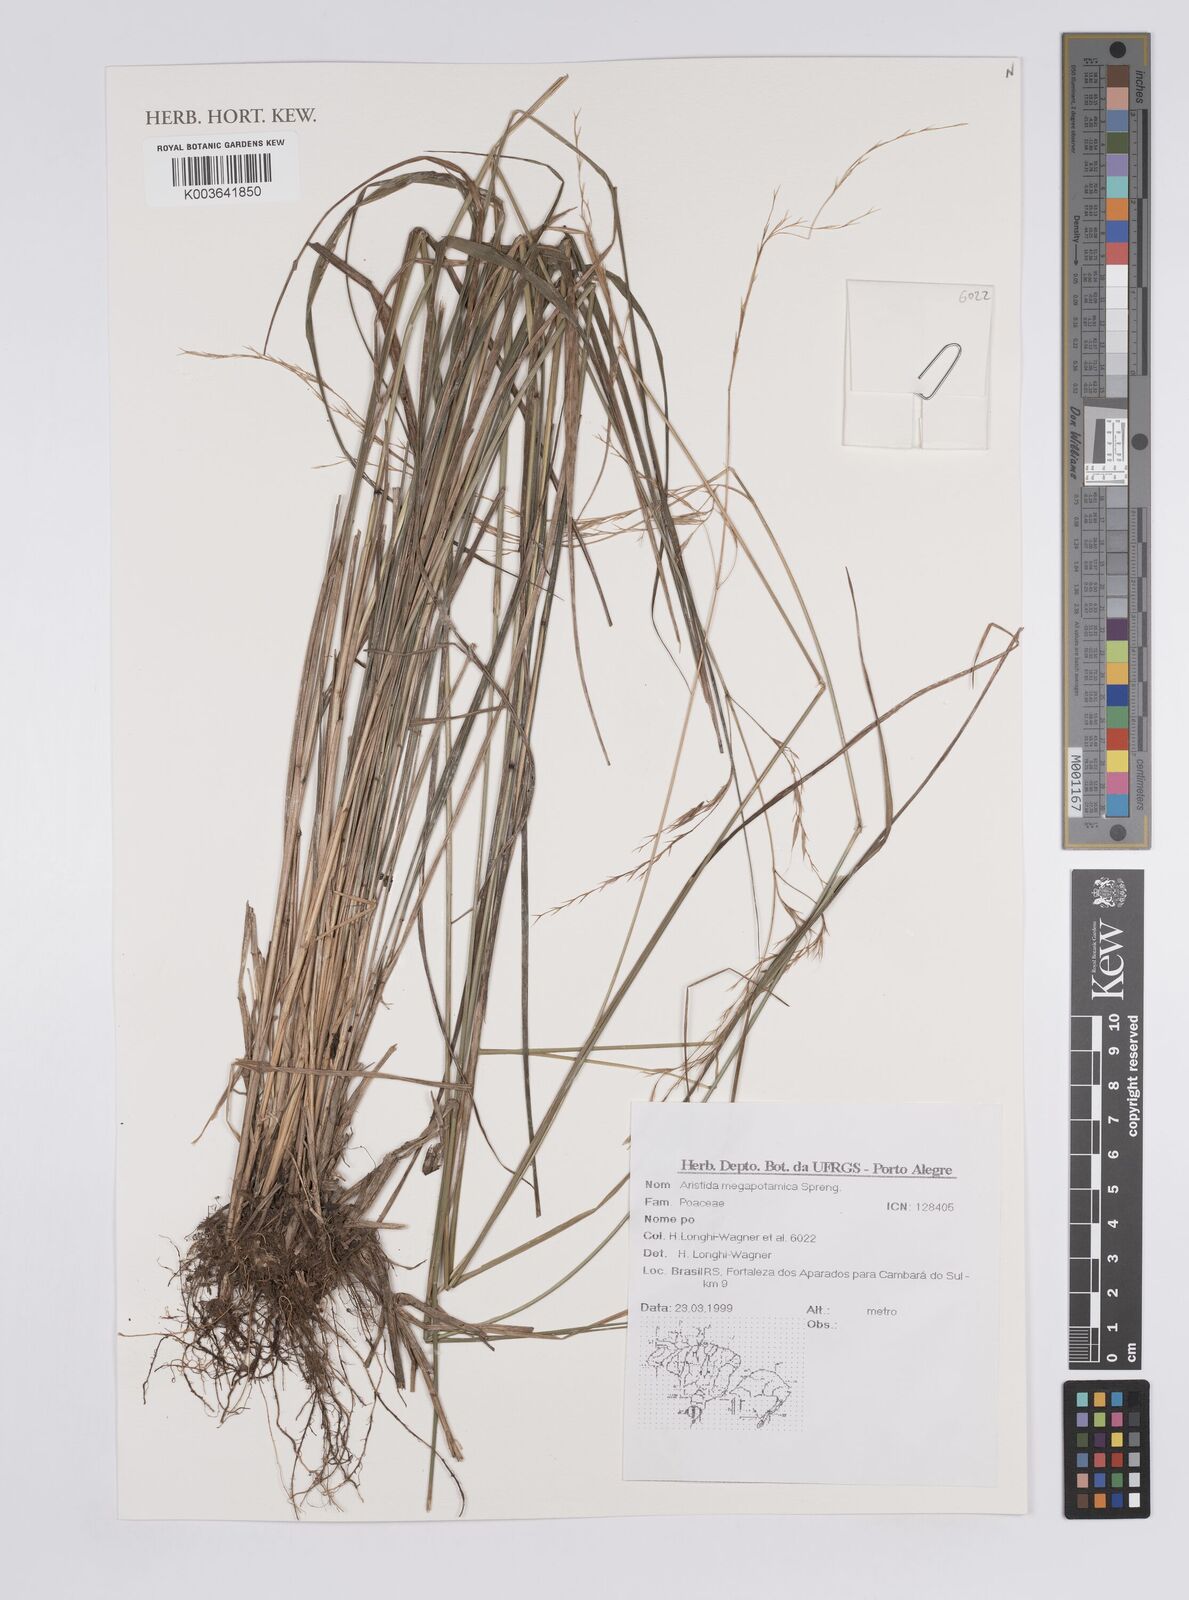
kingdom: Plantae
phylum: Tracheophyta
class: Liliopsida
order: Poales
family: Poaceae
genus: Aristida
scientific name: Aristida megapotamica
